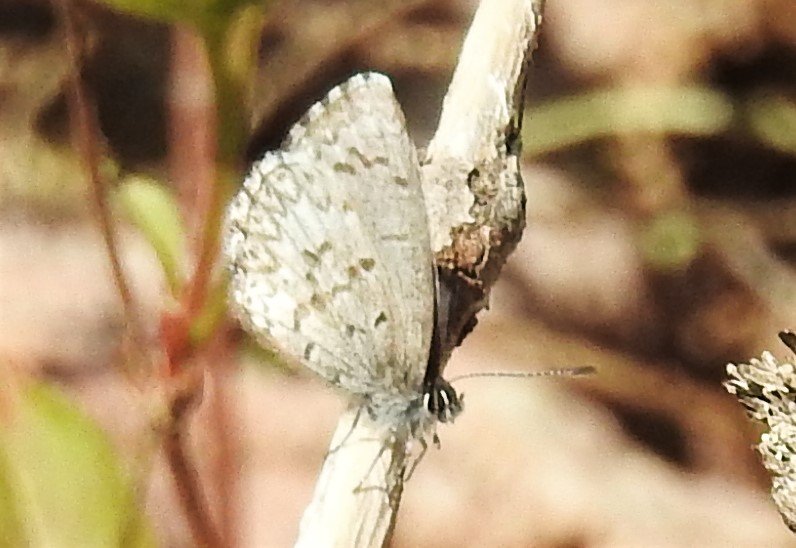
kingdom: Animalia
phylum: Arthropoda
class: Insecta
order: Lepidoptera
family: Lycaenidae
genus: Celastrina
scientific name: Celastrina lucia
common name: Northern Spring Azure
